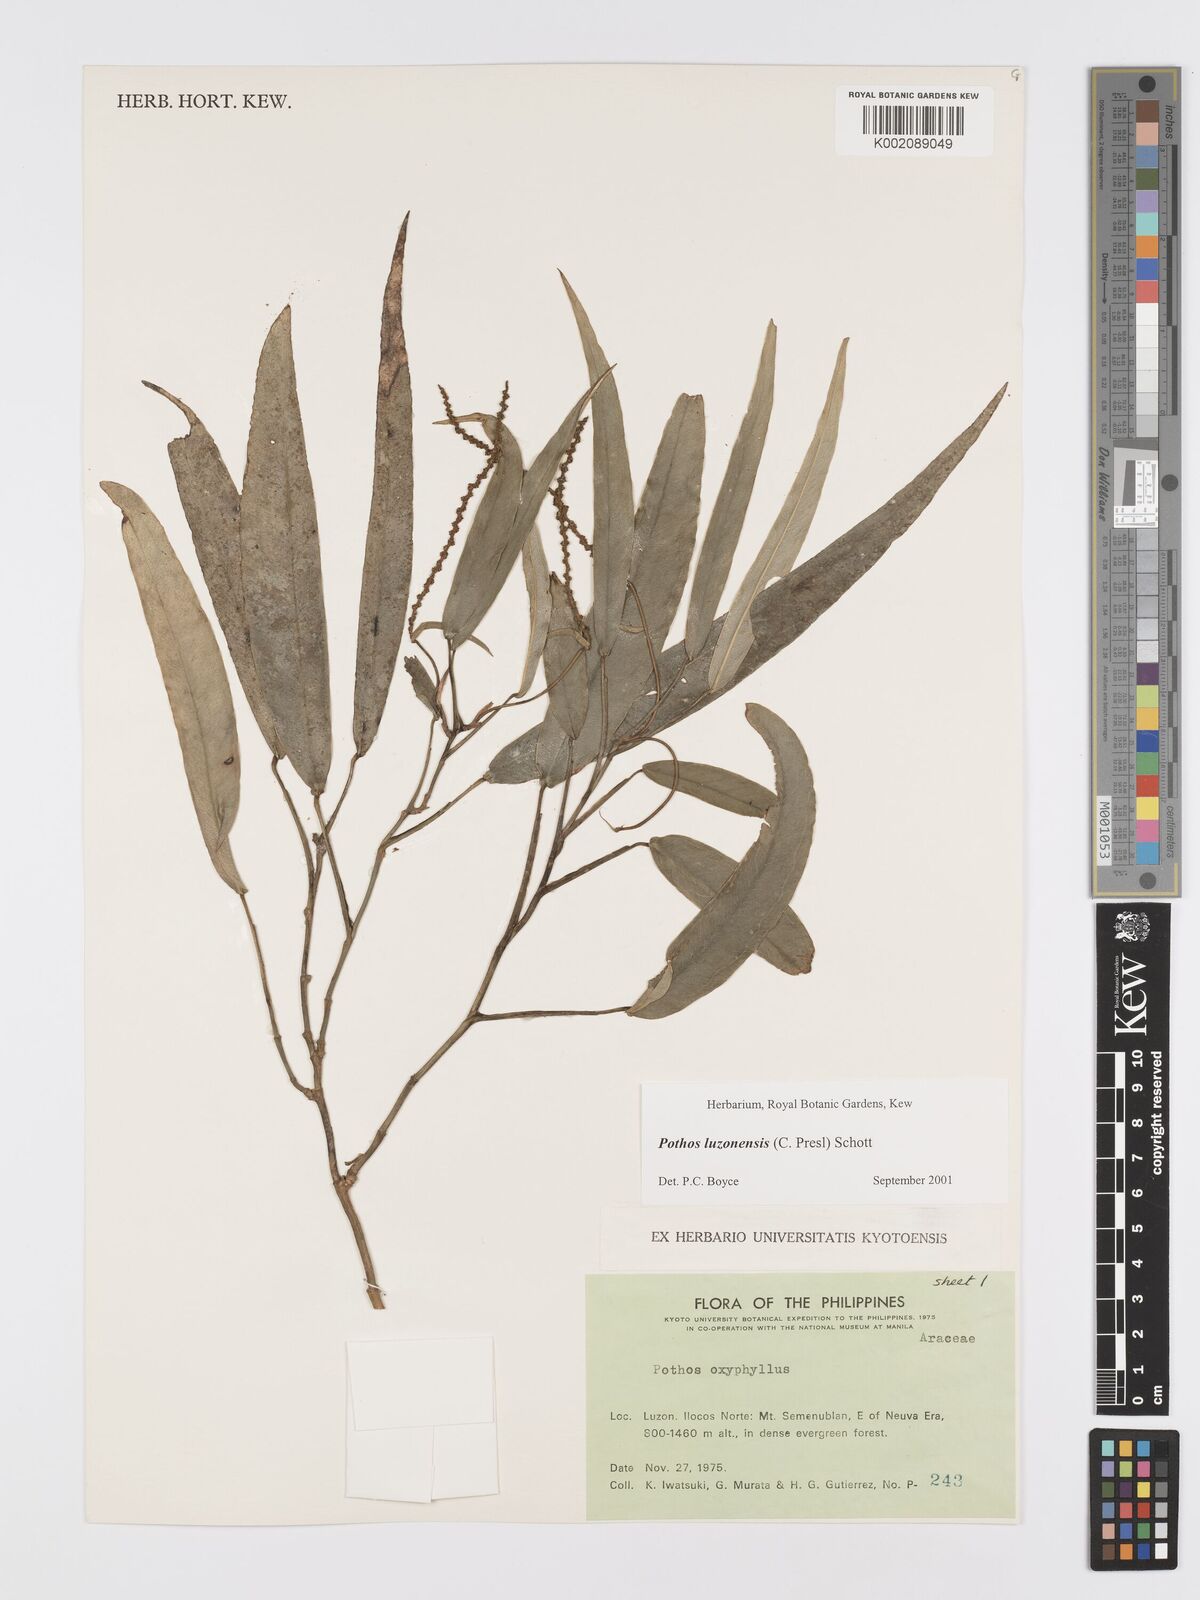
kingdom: Plantae
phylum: Tracheophyta
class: Liliopsida
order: Alismatales
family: Araceae
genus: Pothos
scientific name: Pothos luzonensis
